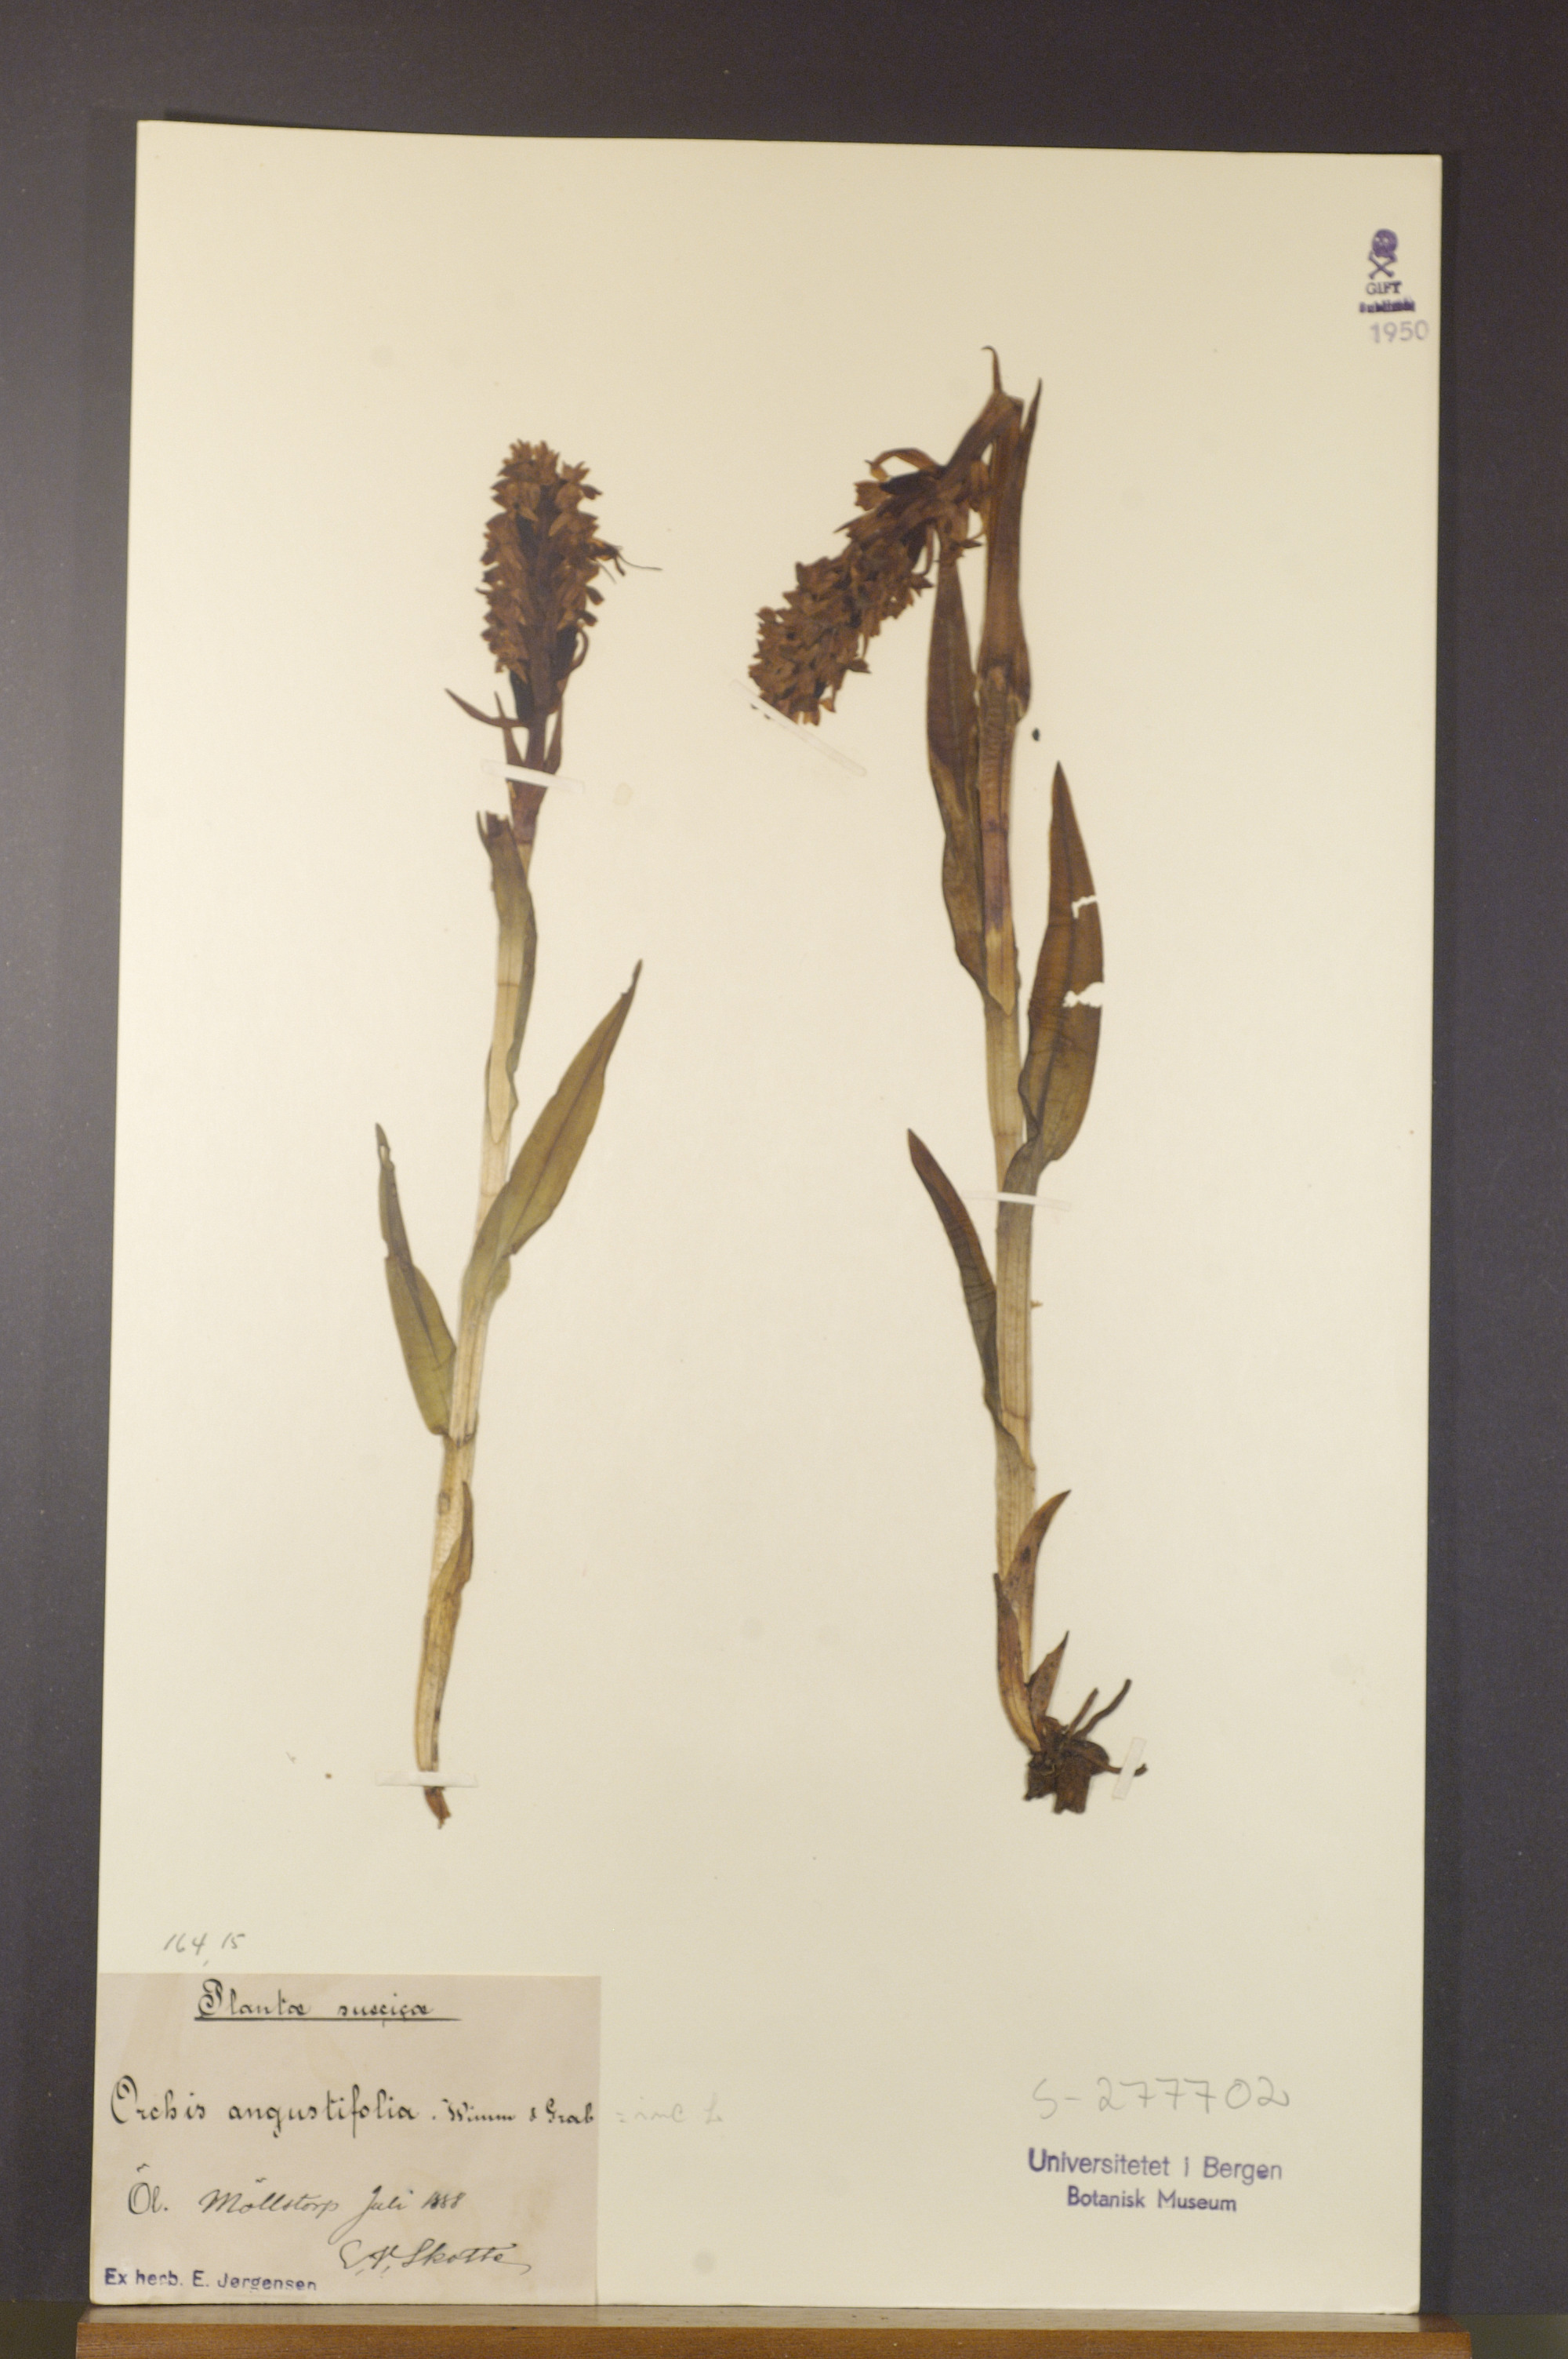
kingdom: Plantae
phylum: Tracheophyta
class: Liliopsida
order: Asparagales
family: Orchidaceae
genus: Dactylorhiza
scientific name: Dactylorhiza incarnata
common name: Early marsh-orchid
